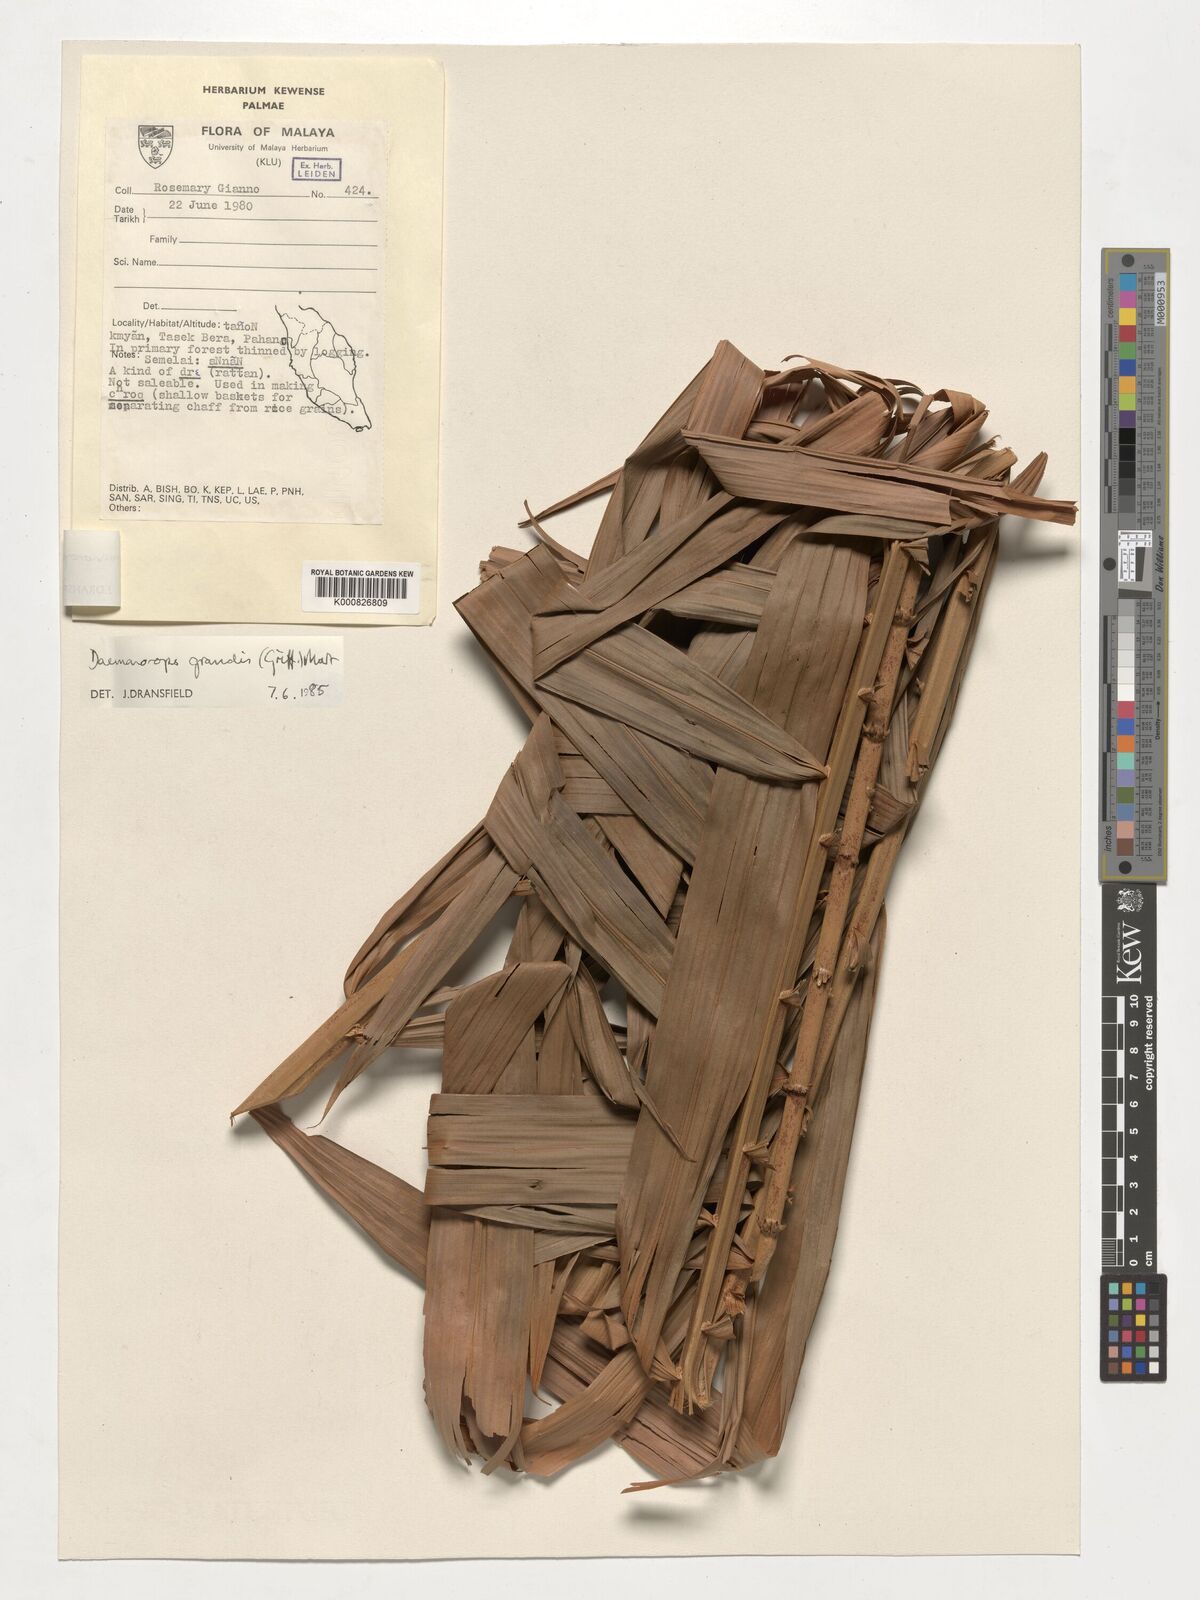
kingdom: Plantae
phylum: Tracheophyta
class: Liliopsida
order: Arecales
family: Arecaceae
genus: Calamus
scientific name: Calamus melanochaetes
